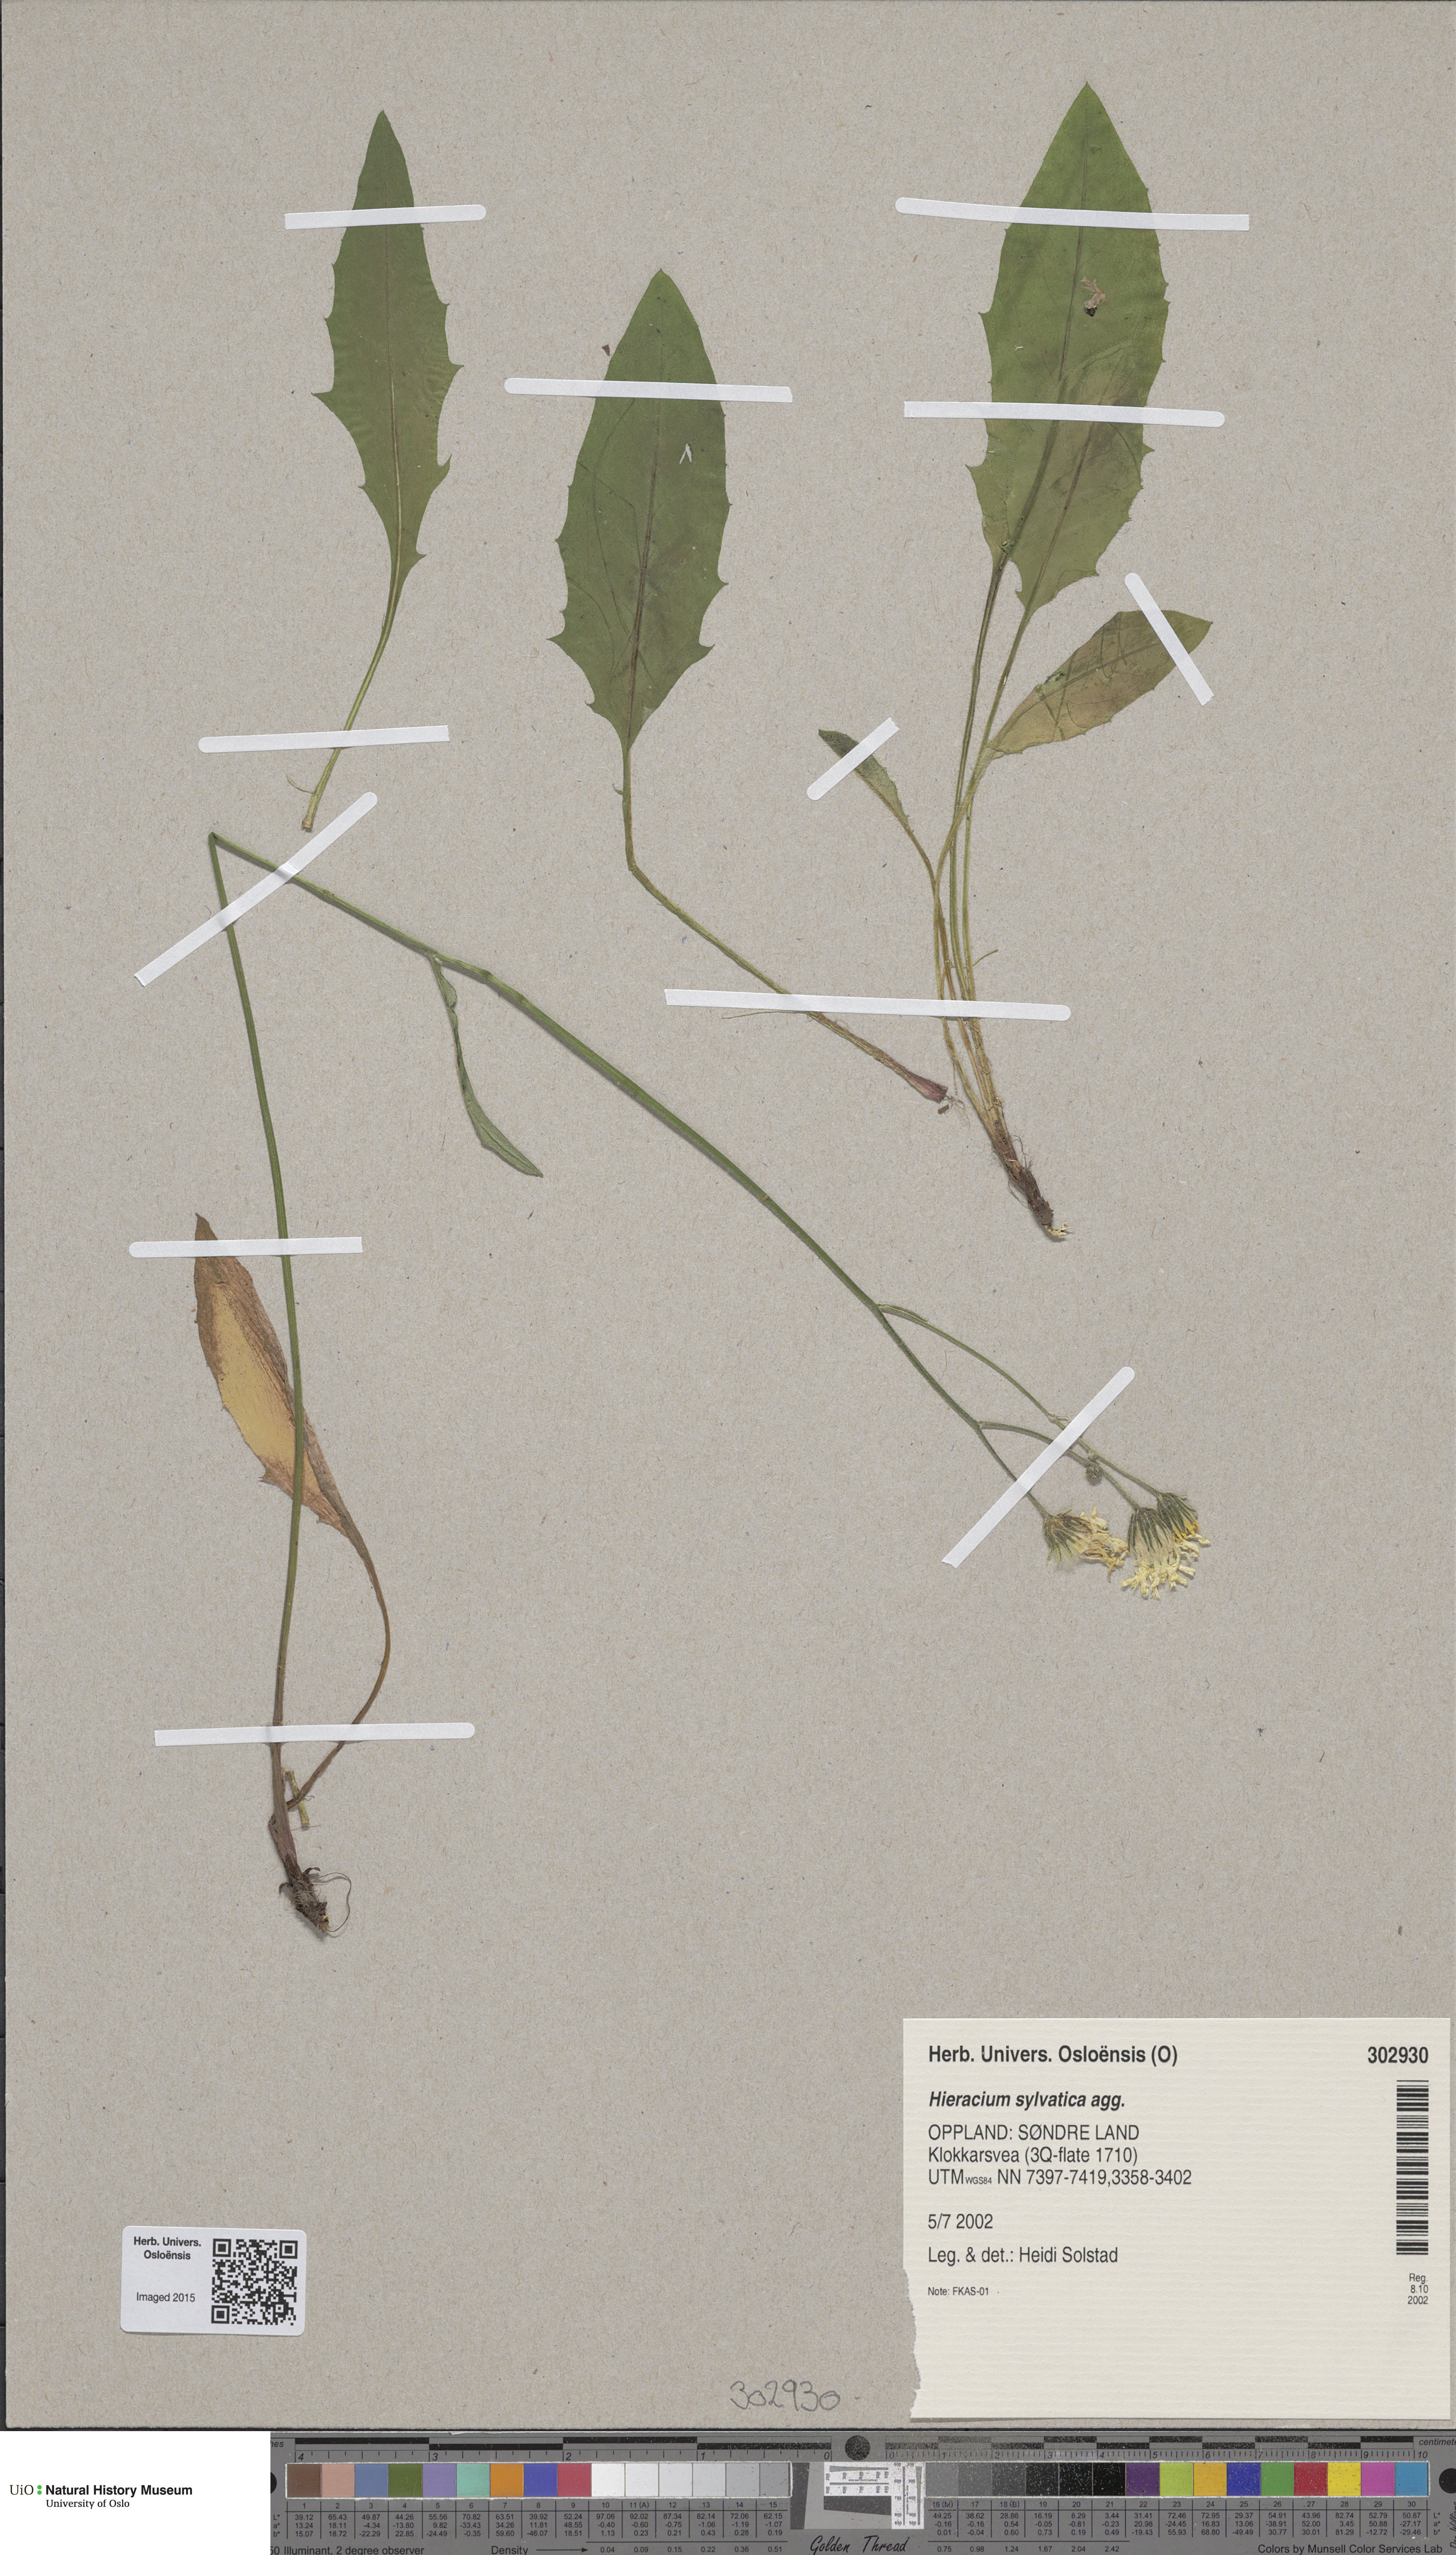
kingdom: Plantae
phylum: Tracheophyta
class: Magnoliopsida
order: Asterales
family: Asteraceae
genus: Hieracium
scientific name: Hieracium
